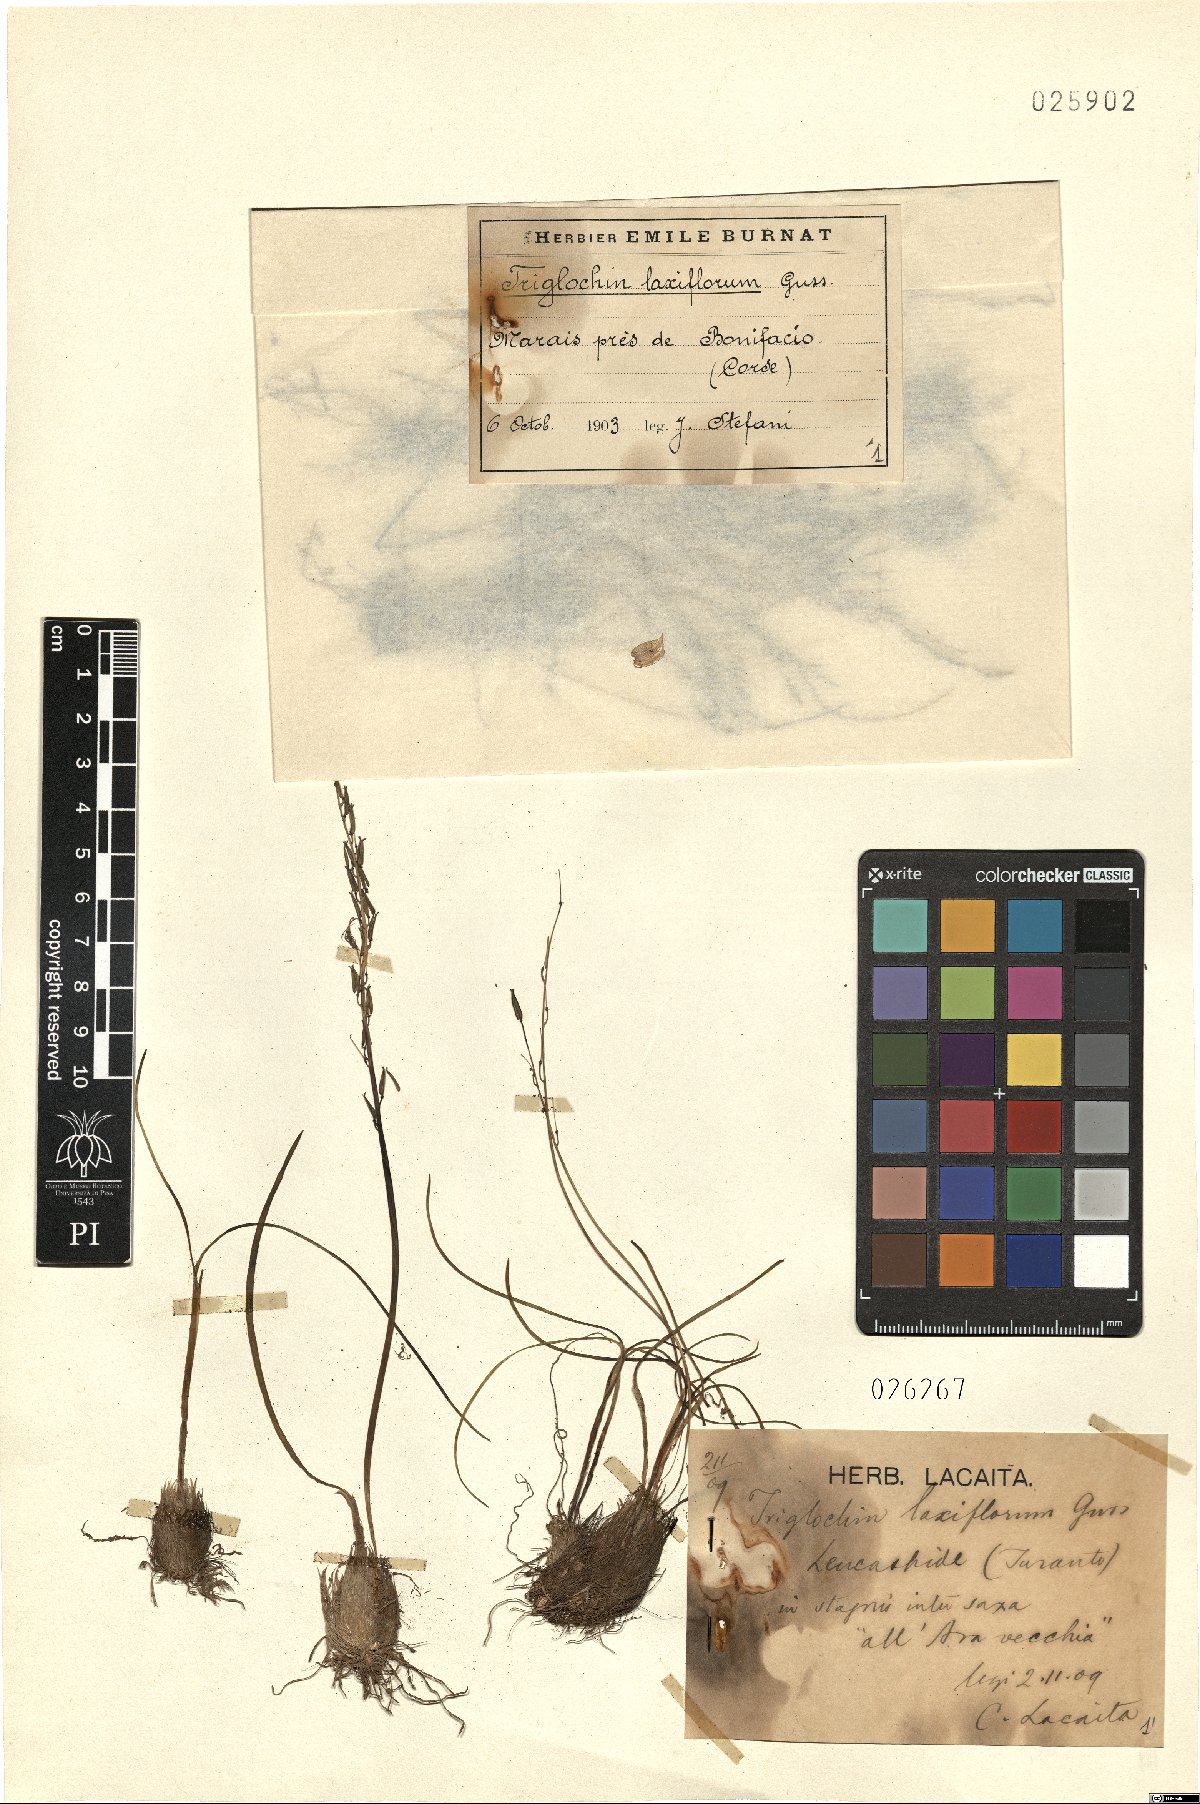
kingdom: Plantae
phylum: Tracheophyta
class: Liliopsida
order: Alismatales
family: Juncaginaceae
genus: Triglochin
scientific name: Triglochin laxiflora
